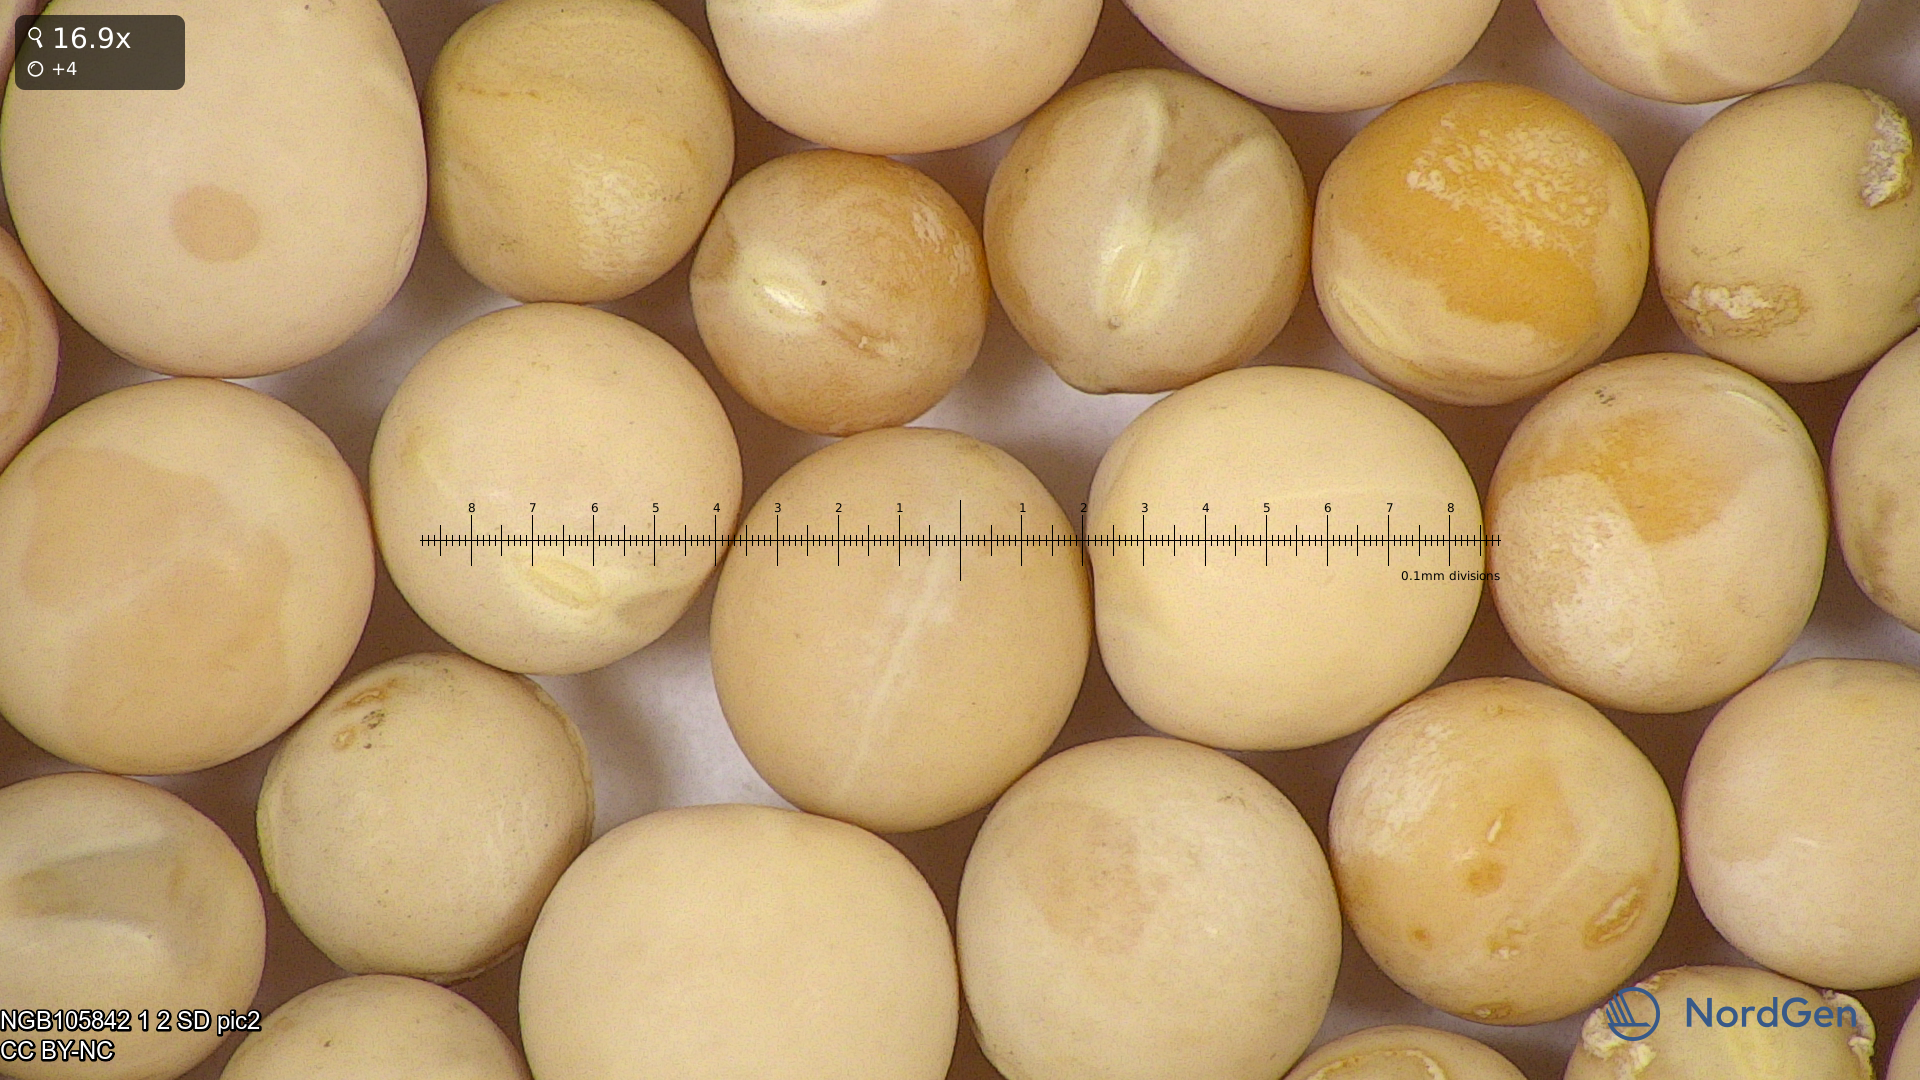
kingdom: Plantae
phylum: Tracheophyta
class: Magnoliopsida
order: Fabales
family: Fabaceae
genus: Lathyrus
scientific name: Lathyrus oleraceus
